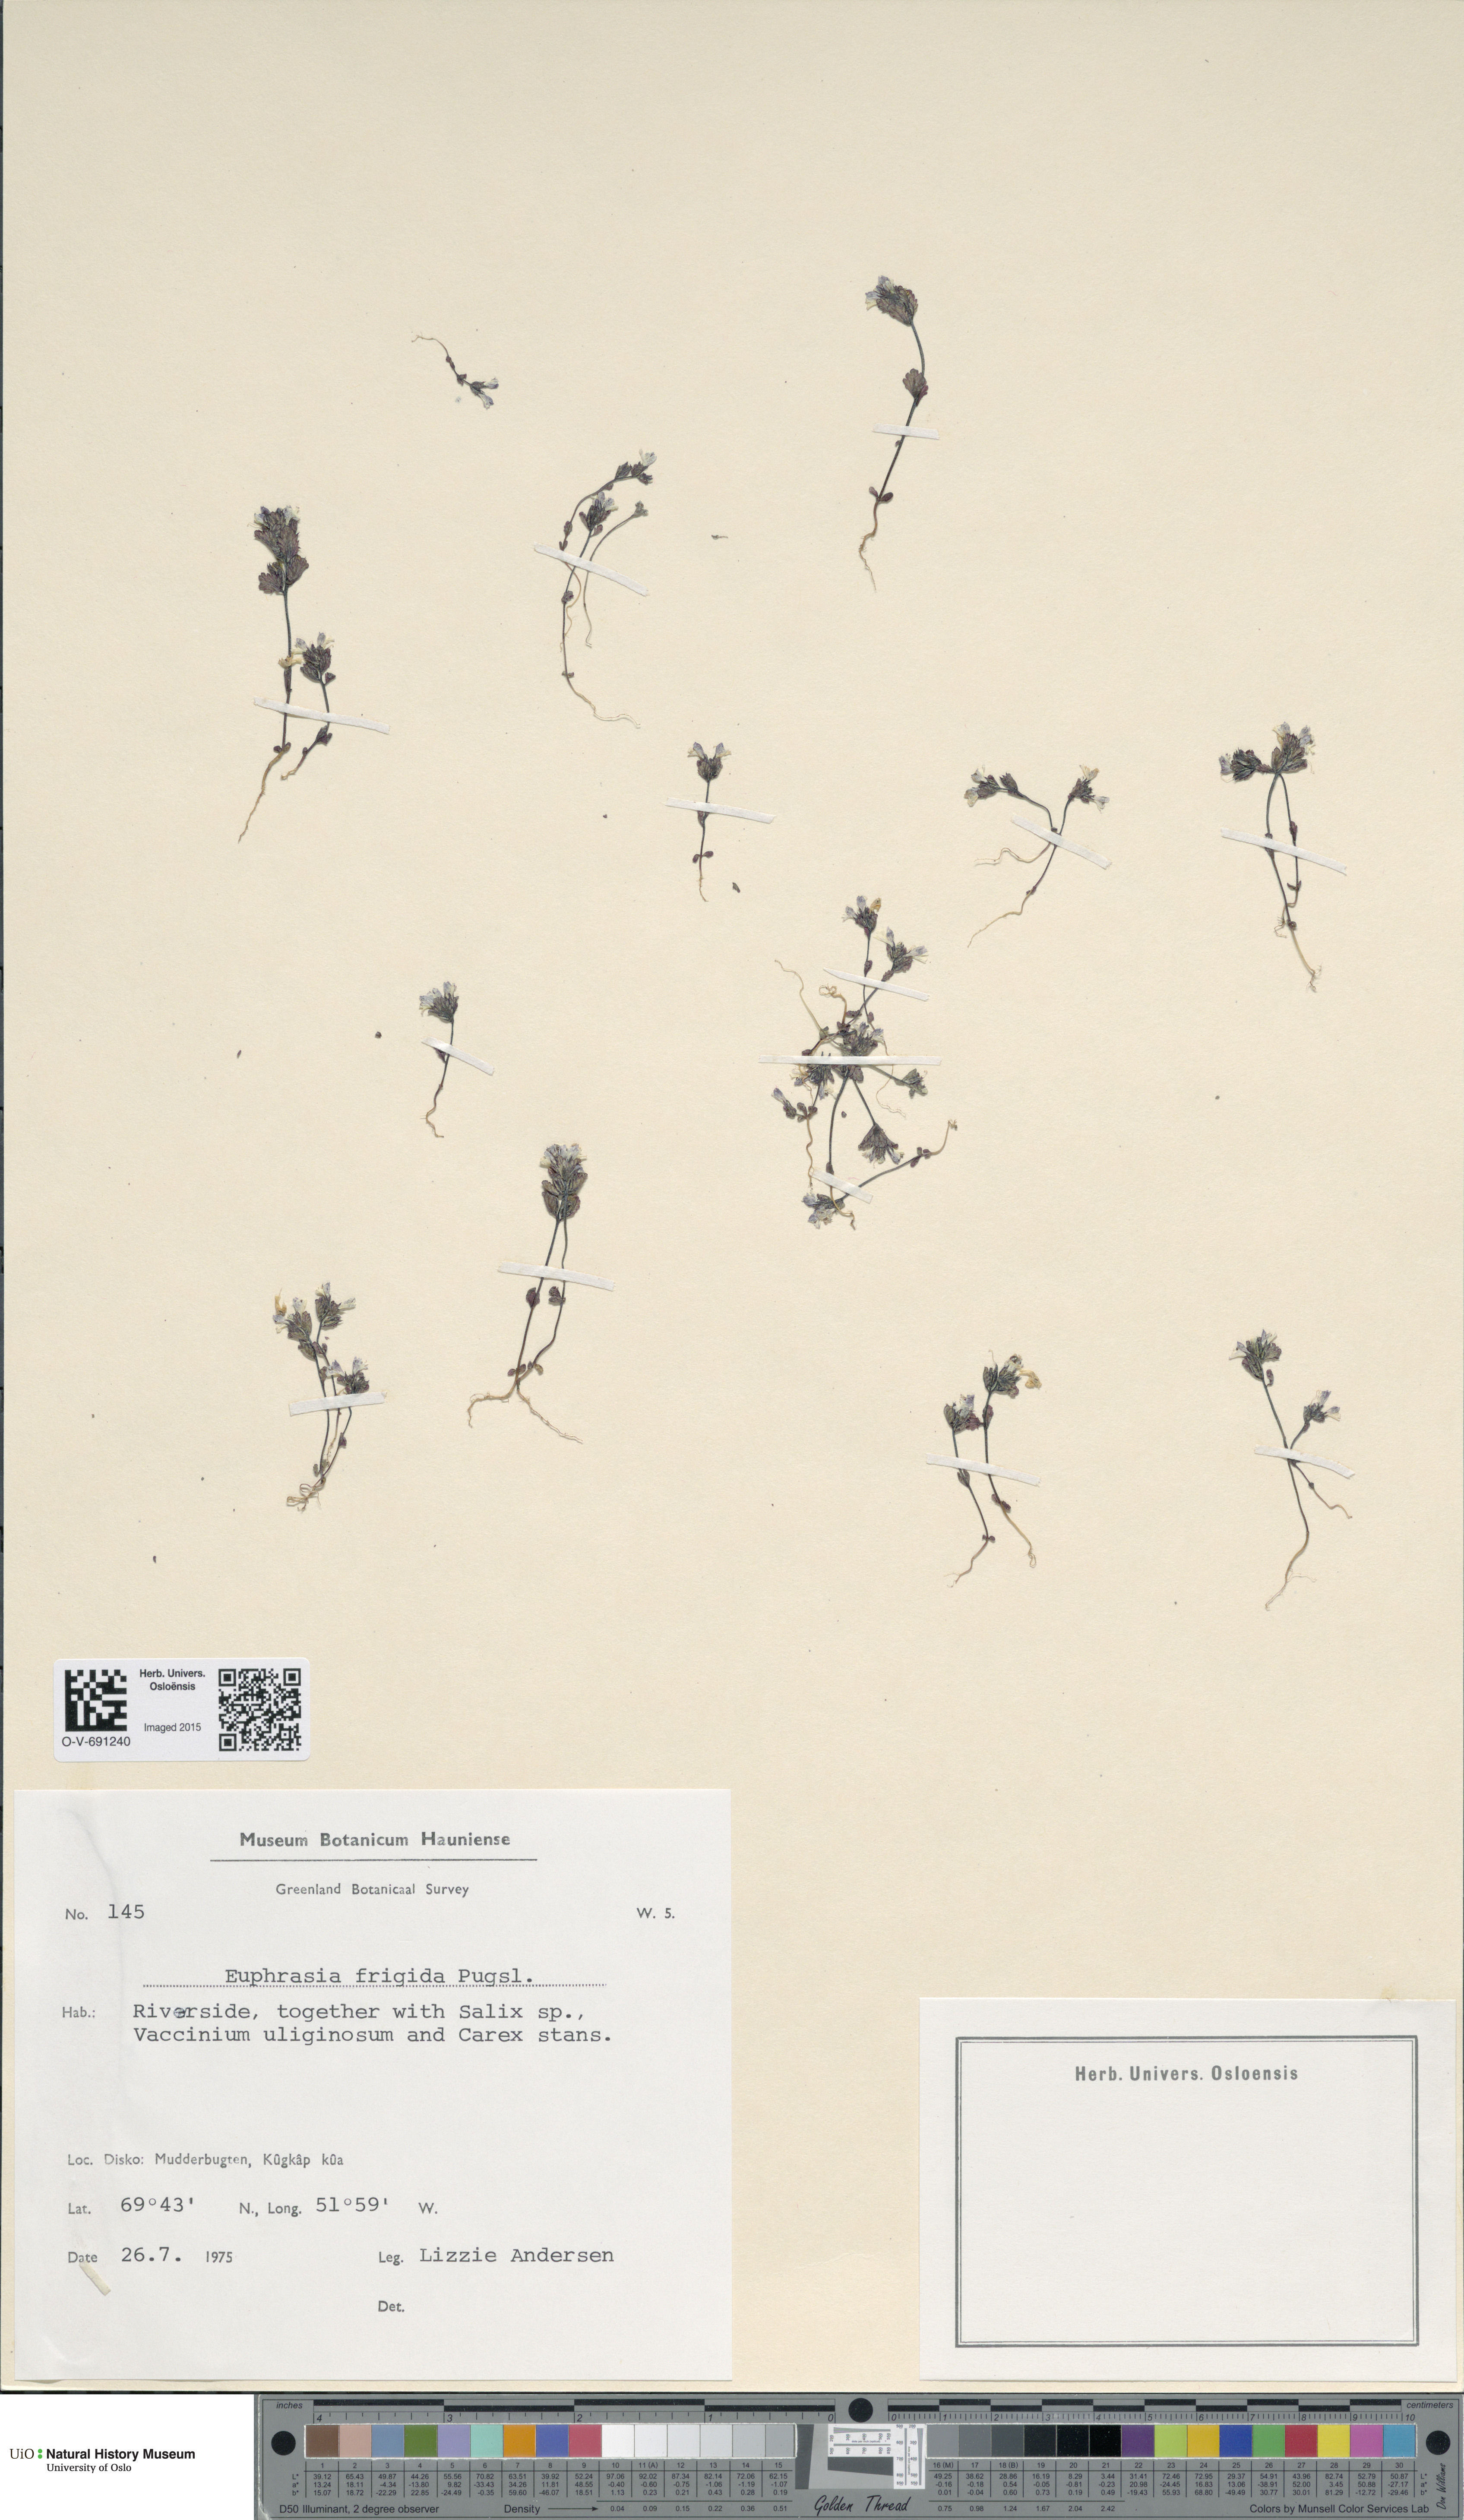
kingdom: Plantae
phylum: Tracheophyta
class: Magnoliopsida
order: Lamiales
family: Orobanchaceae
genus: Euphrasia
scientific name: Euphrasia wettsteinii
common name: Wettstein's eyebright
